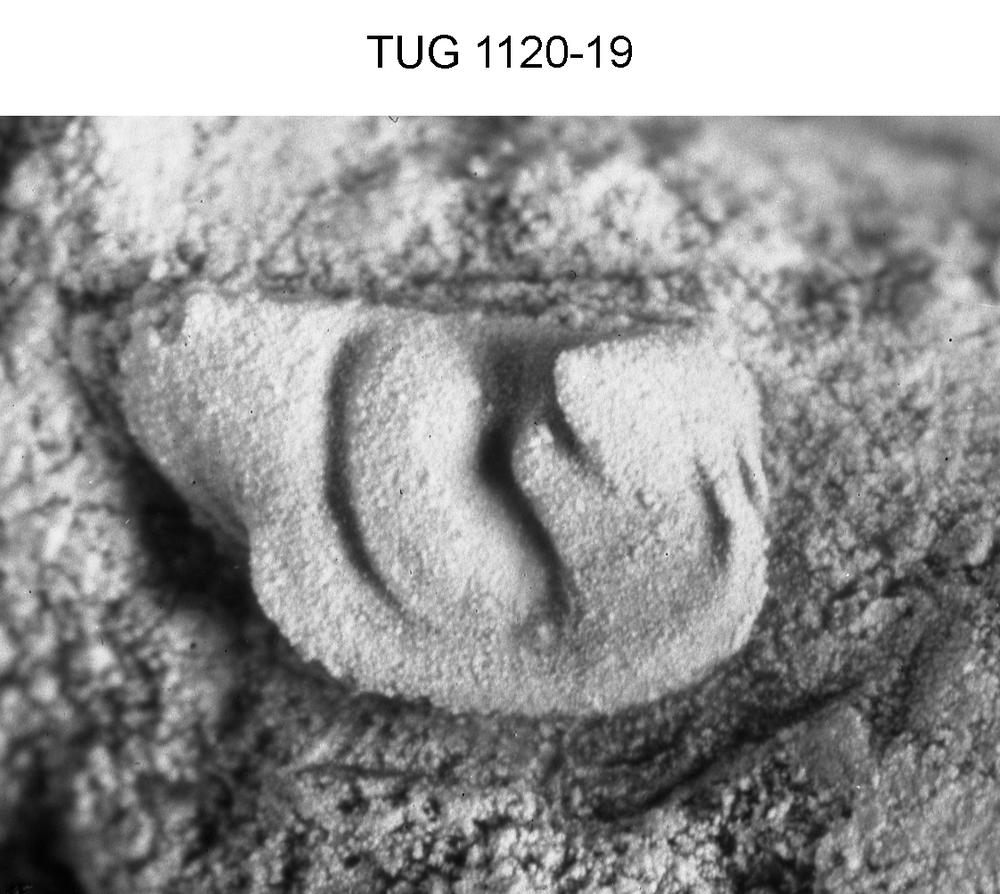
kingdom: Animalia
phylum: Arthropoda
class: Ostracoda
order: Palaeocopida
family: Quadrijugatoridae
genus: Ceratopsis
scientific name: Ceratopsis
